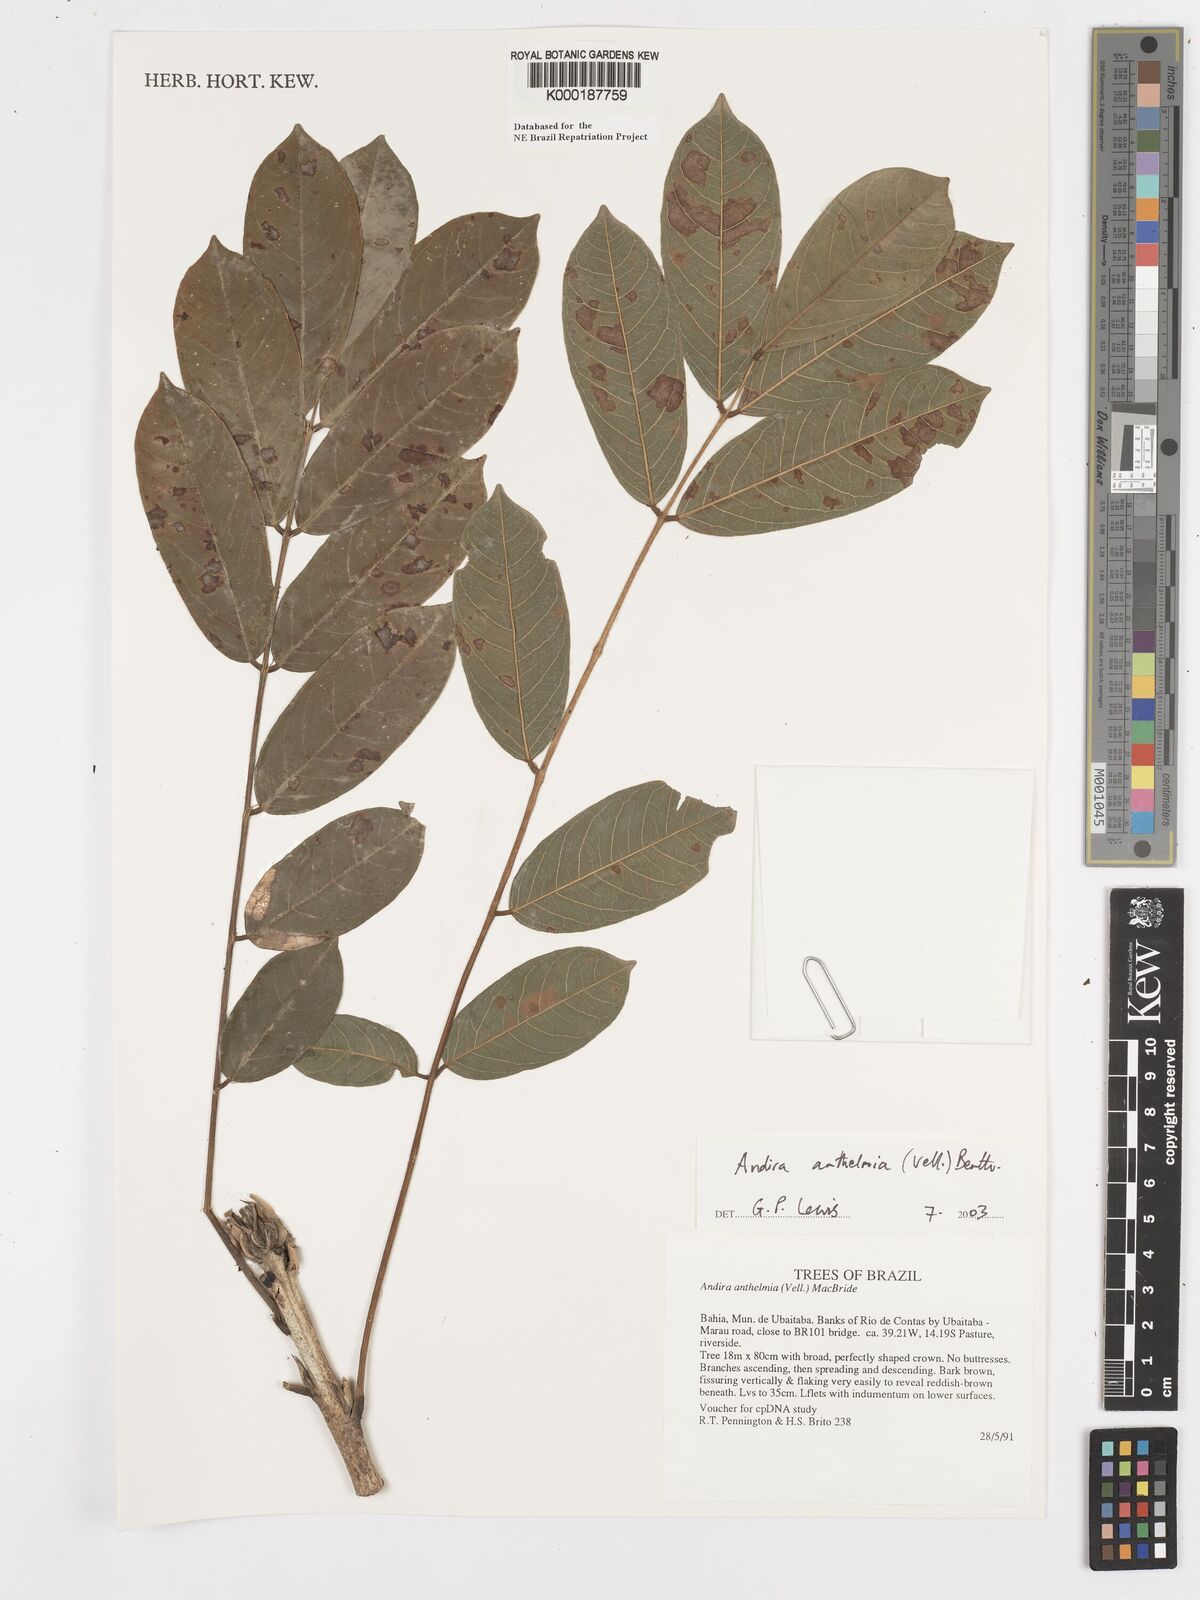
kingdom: Plantae
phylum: Tracheophyta
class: Magnoliopsida
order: Fabales
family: Fabaceae
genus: Andira
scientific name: Andira
